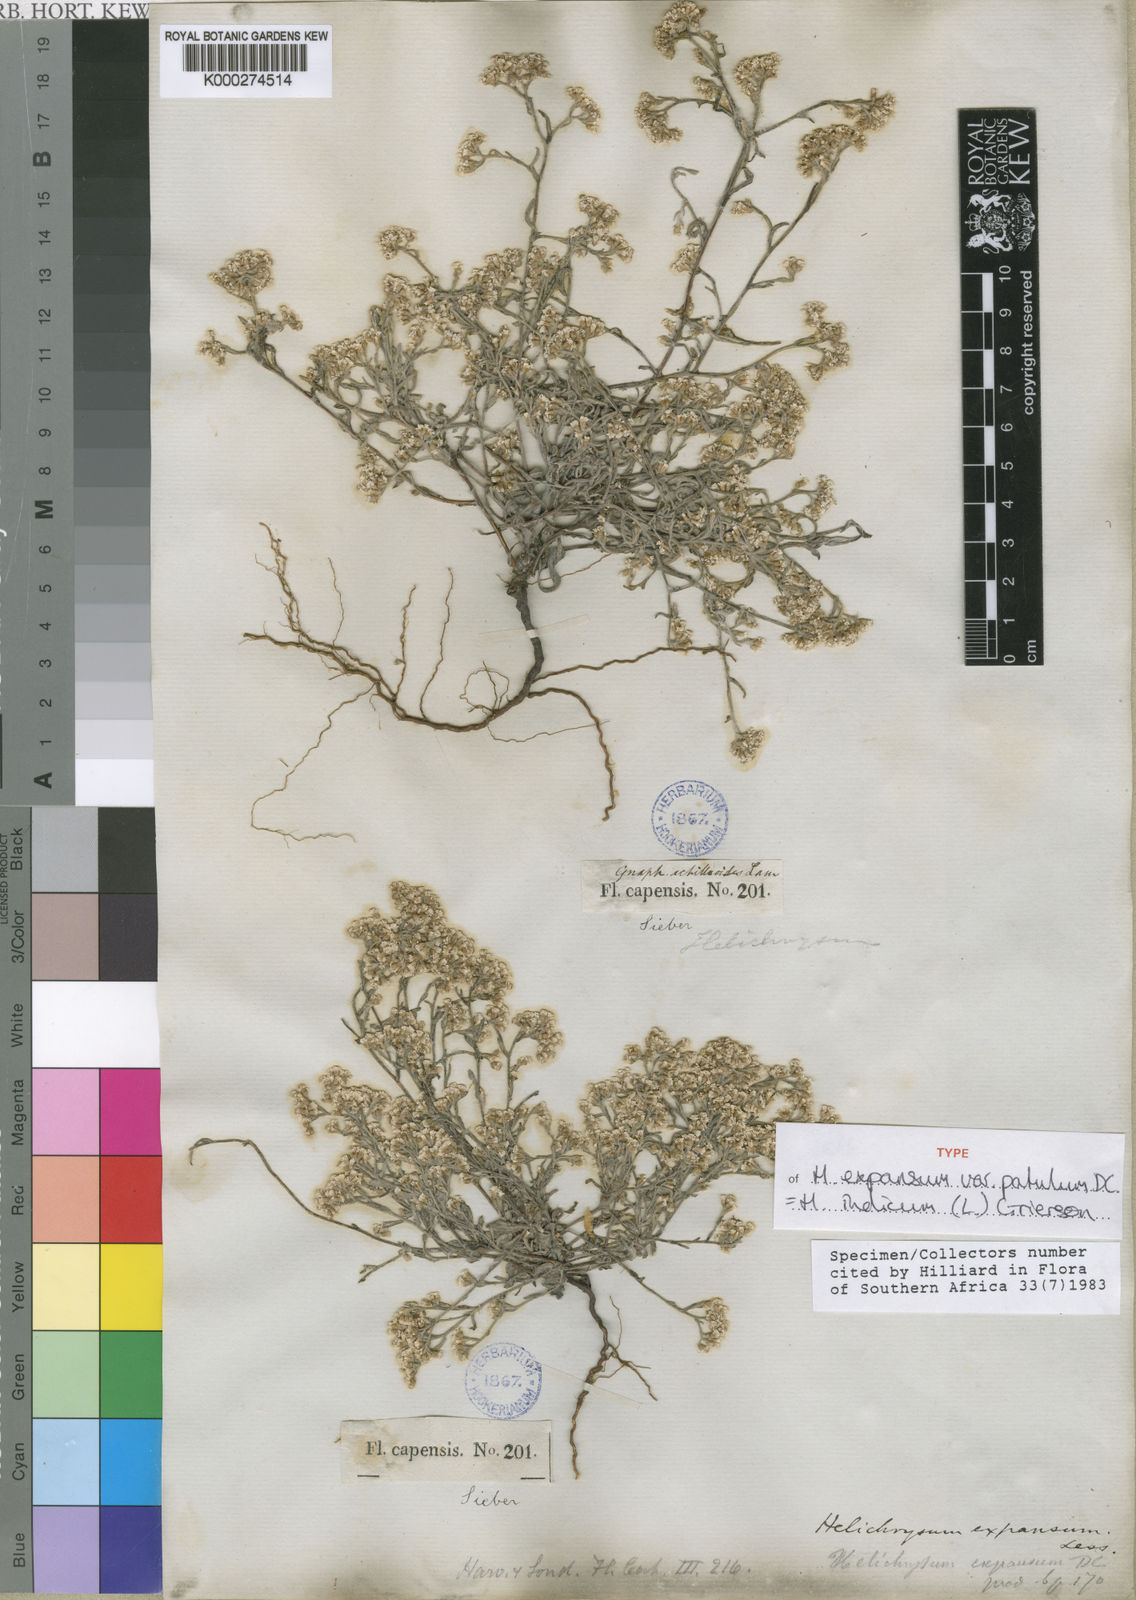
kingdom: Plantae
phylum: Tracheophyta
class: Magnoliopsida
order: Asterales
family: Asteraceae
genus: Helichrysum
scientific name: Helichrysum indicum
